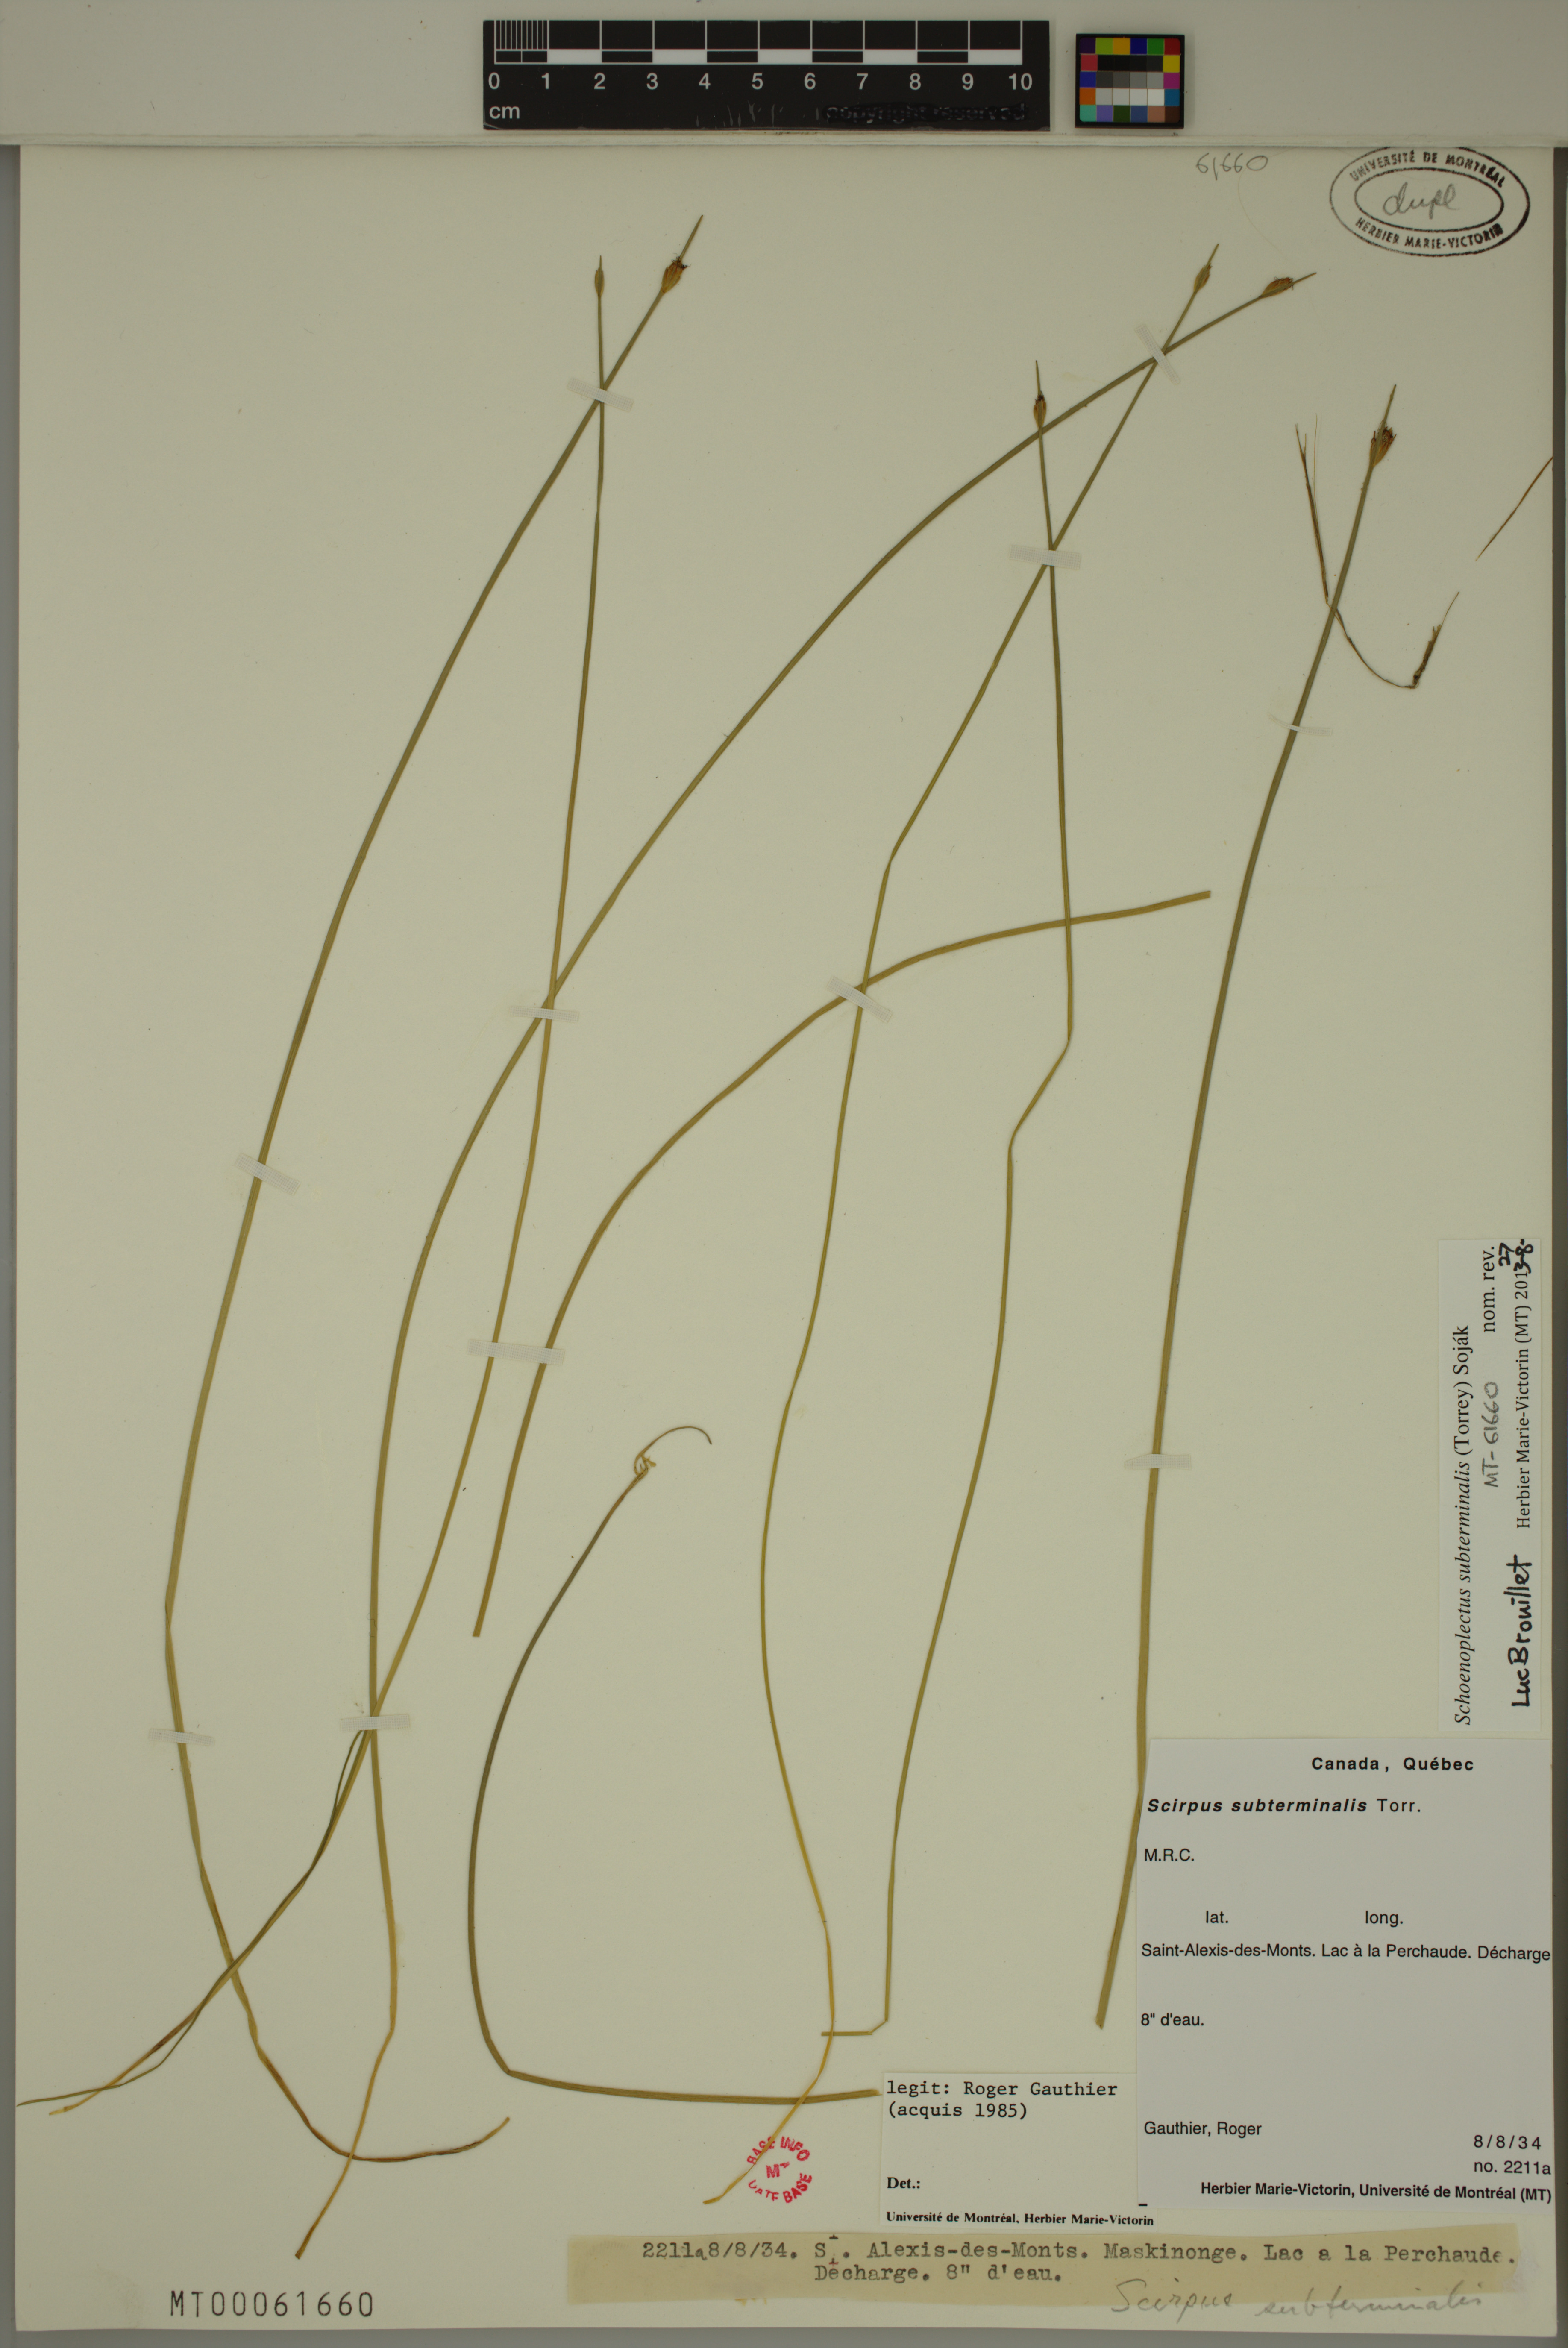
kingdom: Plantae
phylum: Tracheophyta
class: Liliopsida
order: Poales
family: Cyperaceae
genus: Schoenoplectus
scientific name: Schoenoplectus subterminalis
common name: Swaying bulrush
